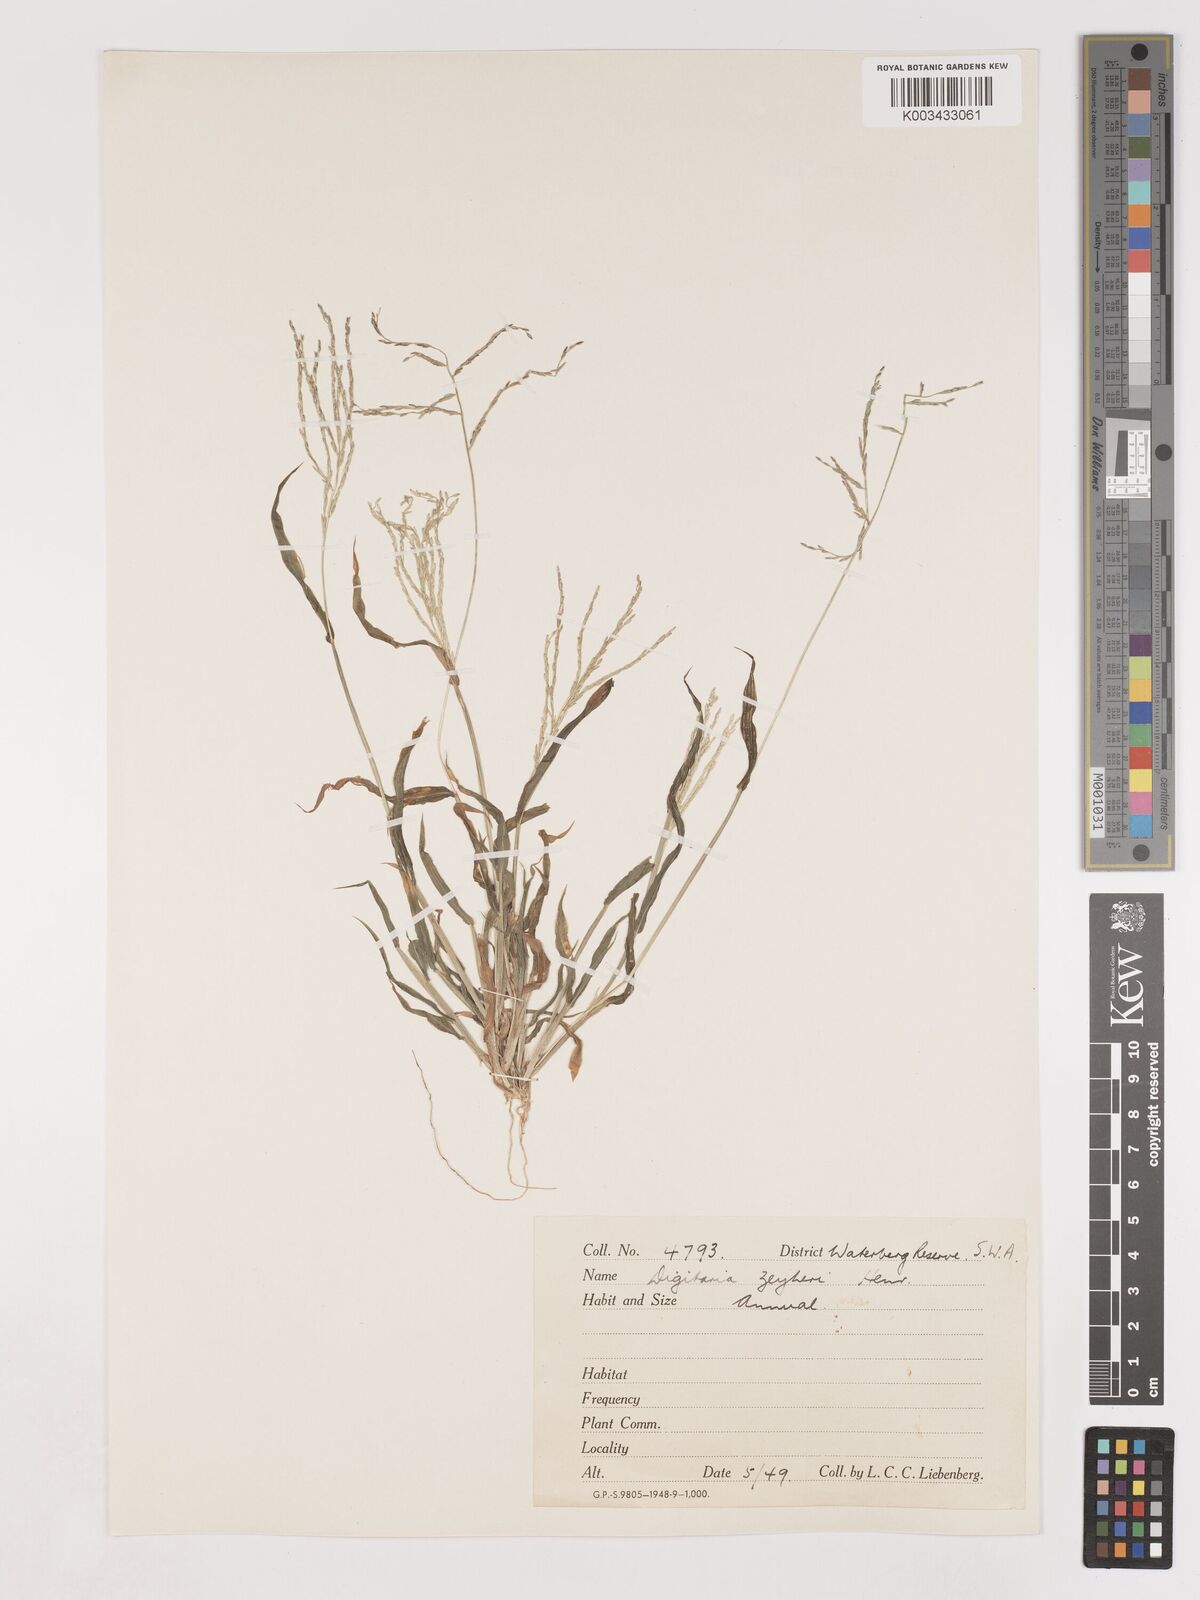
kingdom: Plantae
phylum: Tracheophyta
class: Liliopsida
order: Poales
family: Poaceae
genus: Digitaria
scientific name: Digitaria velutina
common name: Long-plume finger grass
